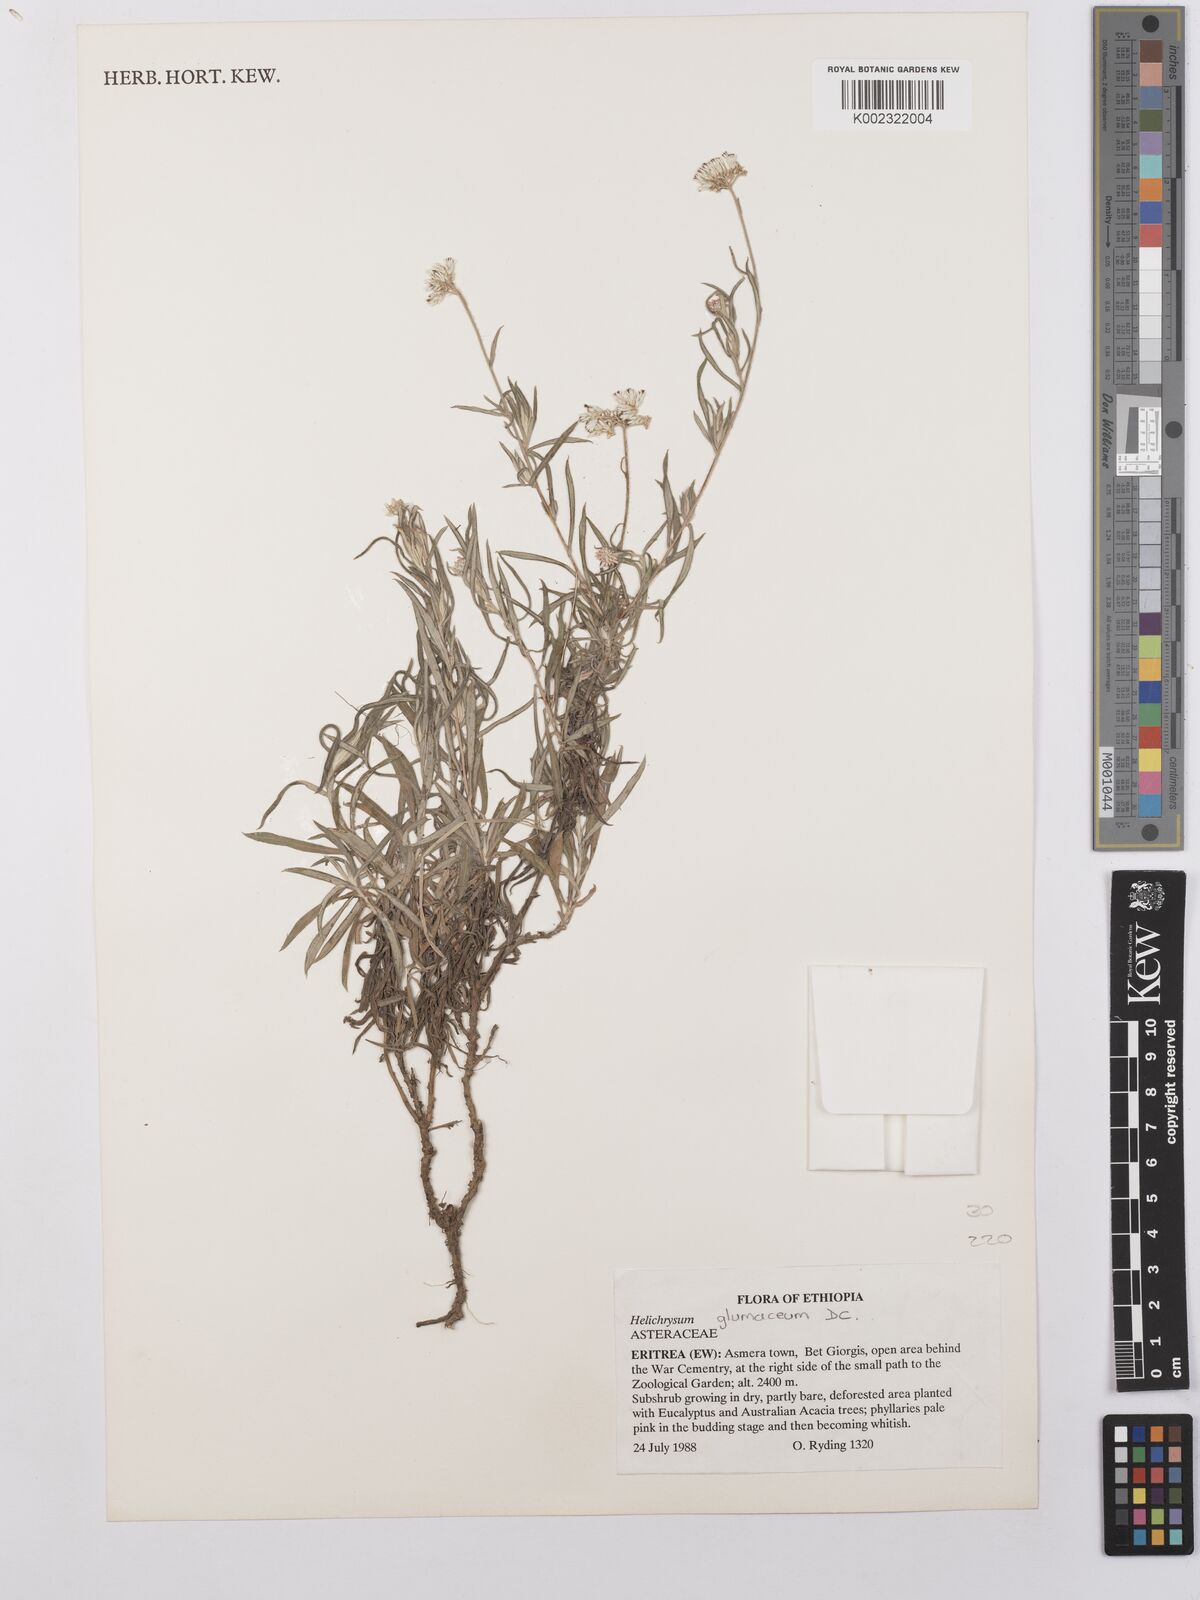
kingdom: Plantae
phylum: Tracheophyta
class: Magnoliopsida
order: Asterales
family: Asteraceae
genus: Helichrysum
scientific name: Helichrysum glumaceum
